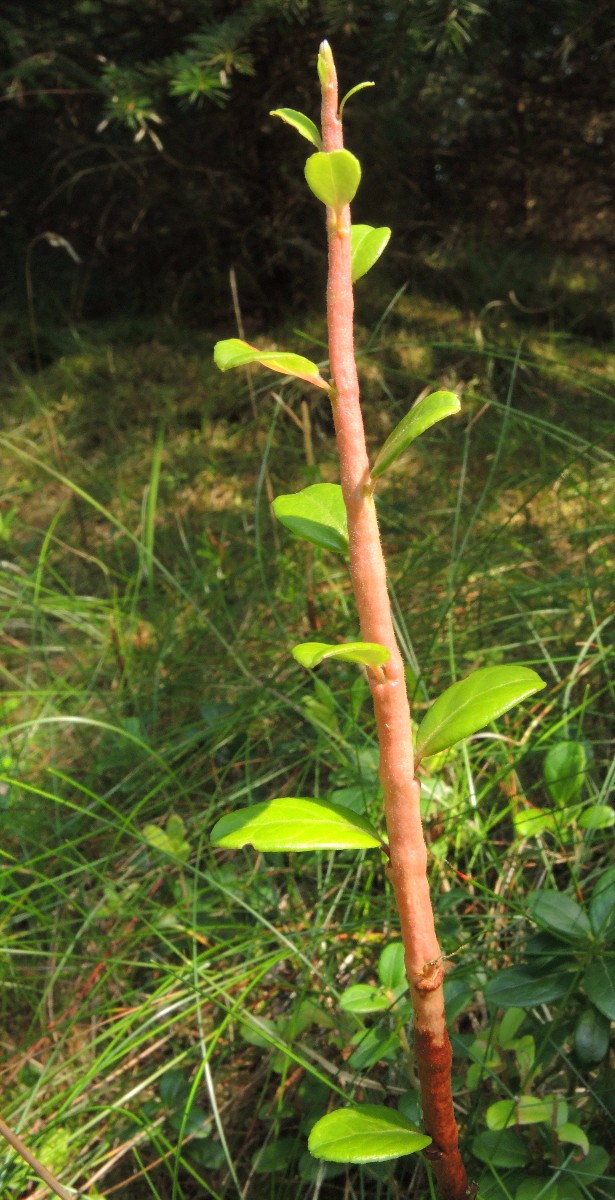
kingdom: Fungi
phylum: Basidiomycota
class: Pucciniomycetes
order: Pucciniales
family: Pucciniastraceae
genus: Calyptospora
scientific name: Calyptospora columnaris
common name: Huckleberry broom rust fungus
